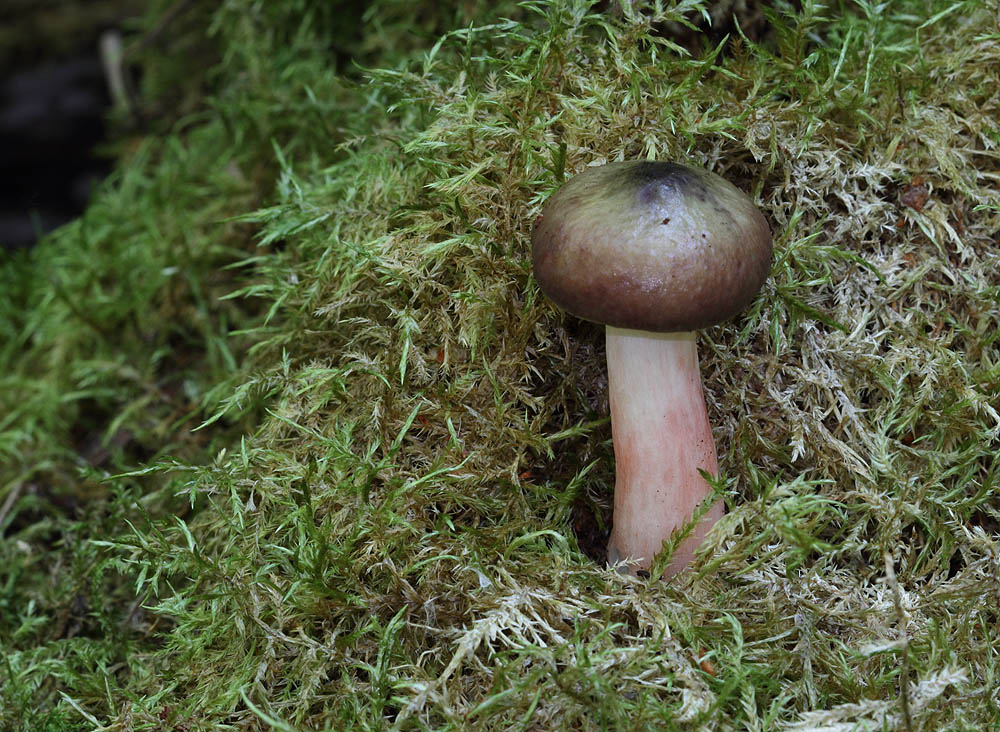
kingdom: Fungi
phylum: Basidiomycota
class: Agaricomycetes
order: Russulales
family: Russulaceae
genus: Russula
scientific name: Russula gracillima
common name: slank skørhat
